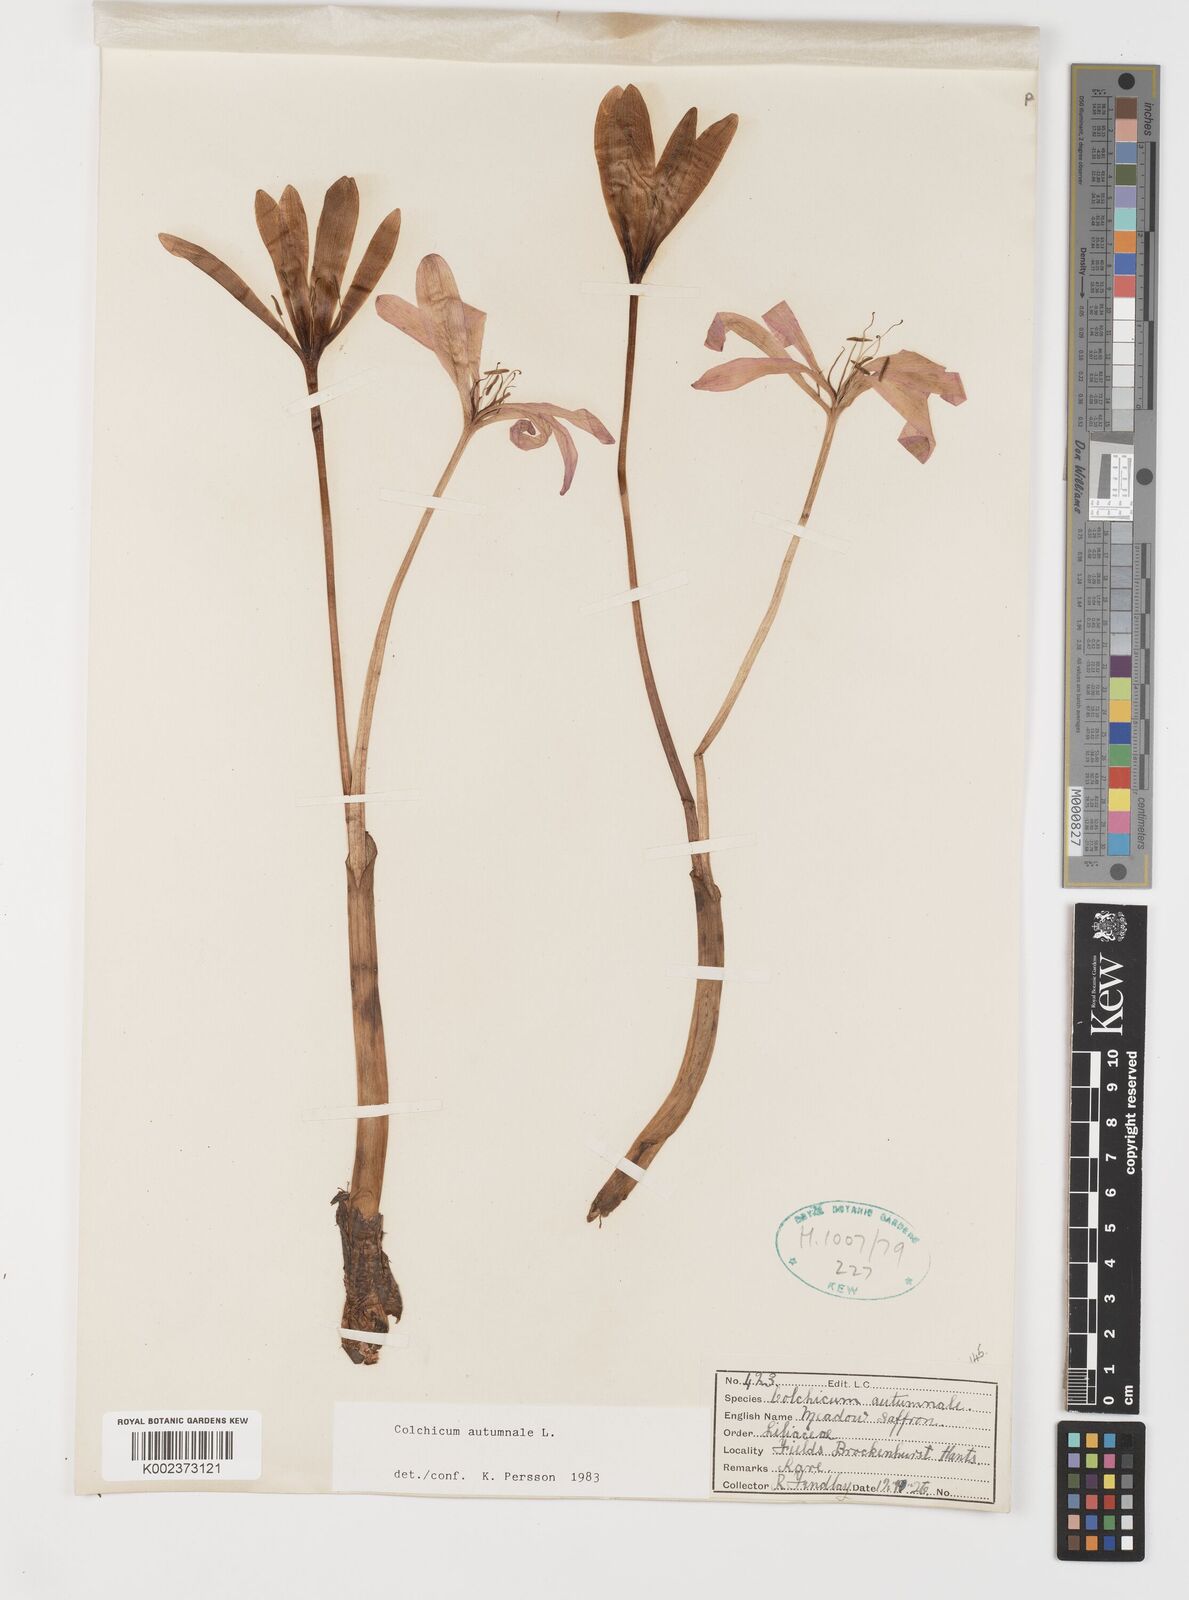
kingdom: Plantae
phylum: Tracheophyta
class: Liliopsida
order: Liliales
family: Colchicaceae
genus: Colchicum
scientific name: Colchicum autumnale
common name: Autumn crocus
